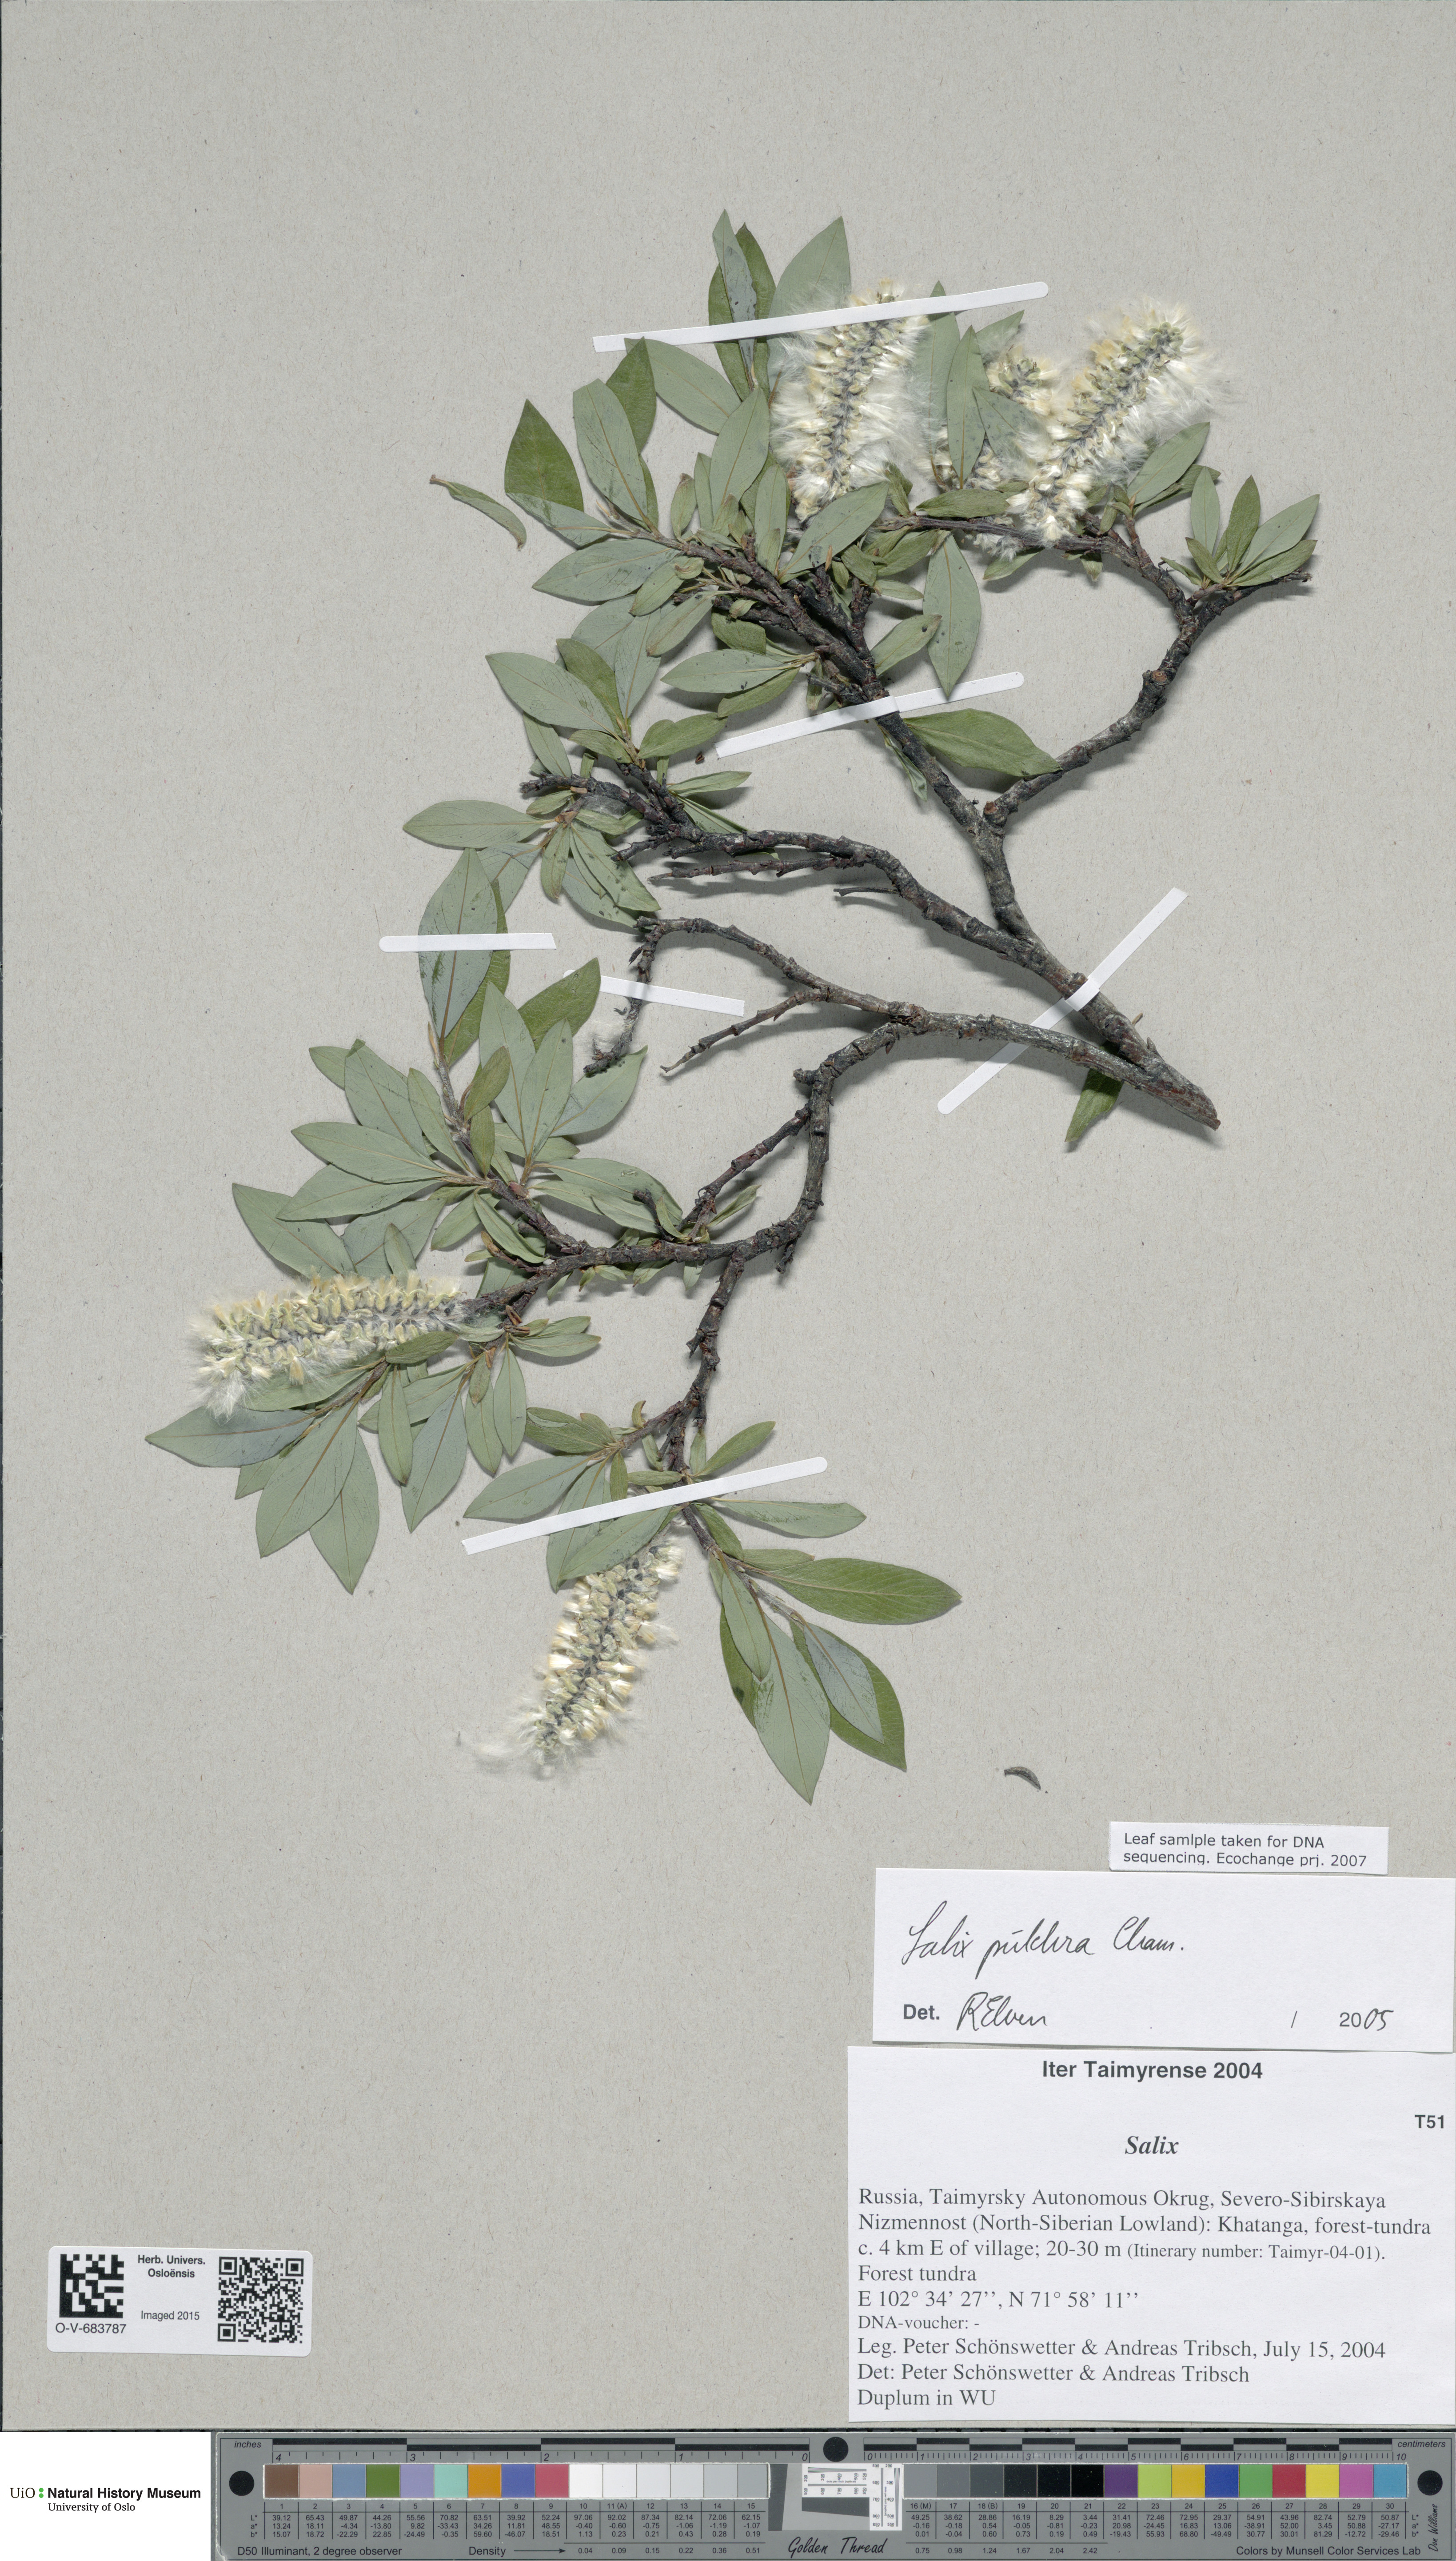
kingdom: Plantae
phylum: Tracheophyta
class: Magnoliopsida
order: Malpighiales
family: Salicaceae
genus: Salix
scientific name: Salix pulchra
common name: Diamond-leaved willow
